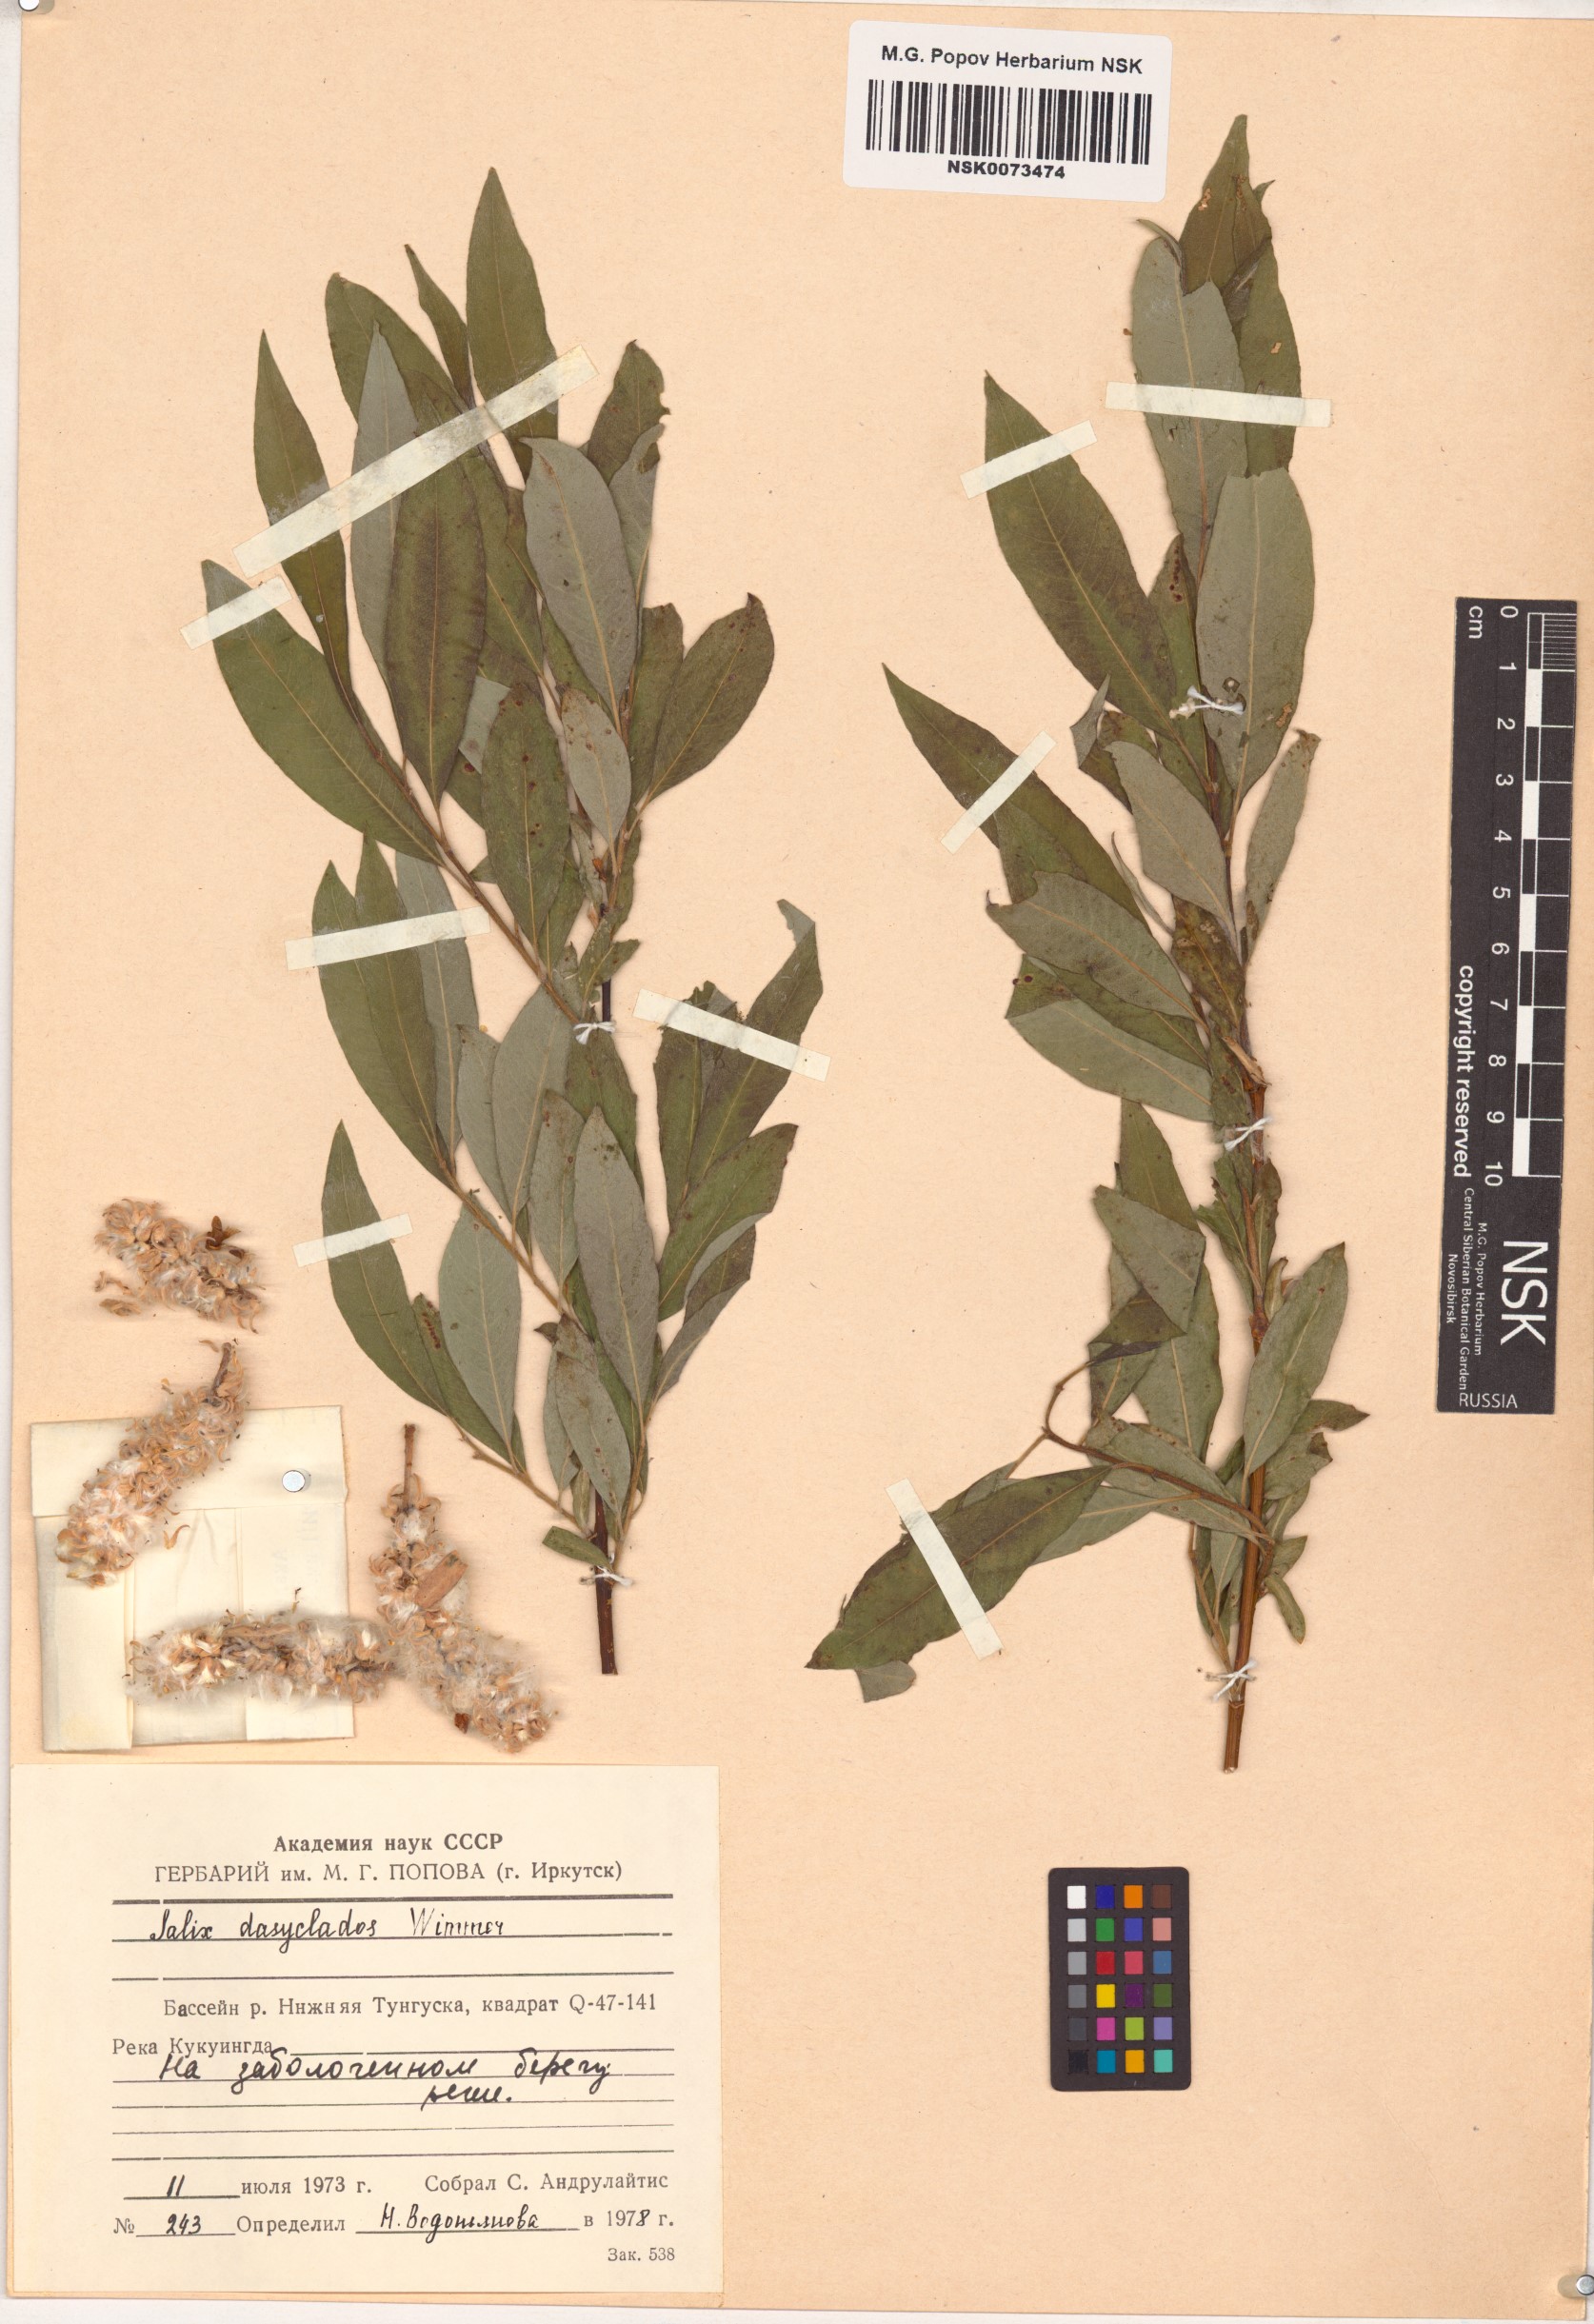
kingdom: Plantae
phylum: Tracheophyta
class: Magnoliopsida
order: Malpighiales
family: Salicaceae
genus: Salix
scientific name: Salix gmelinii
